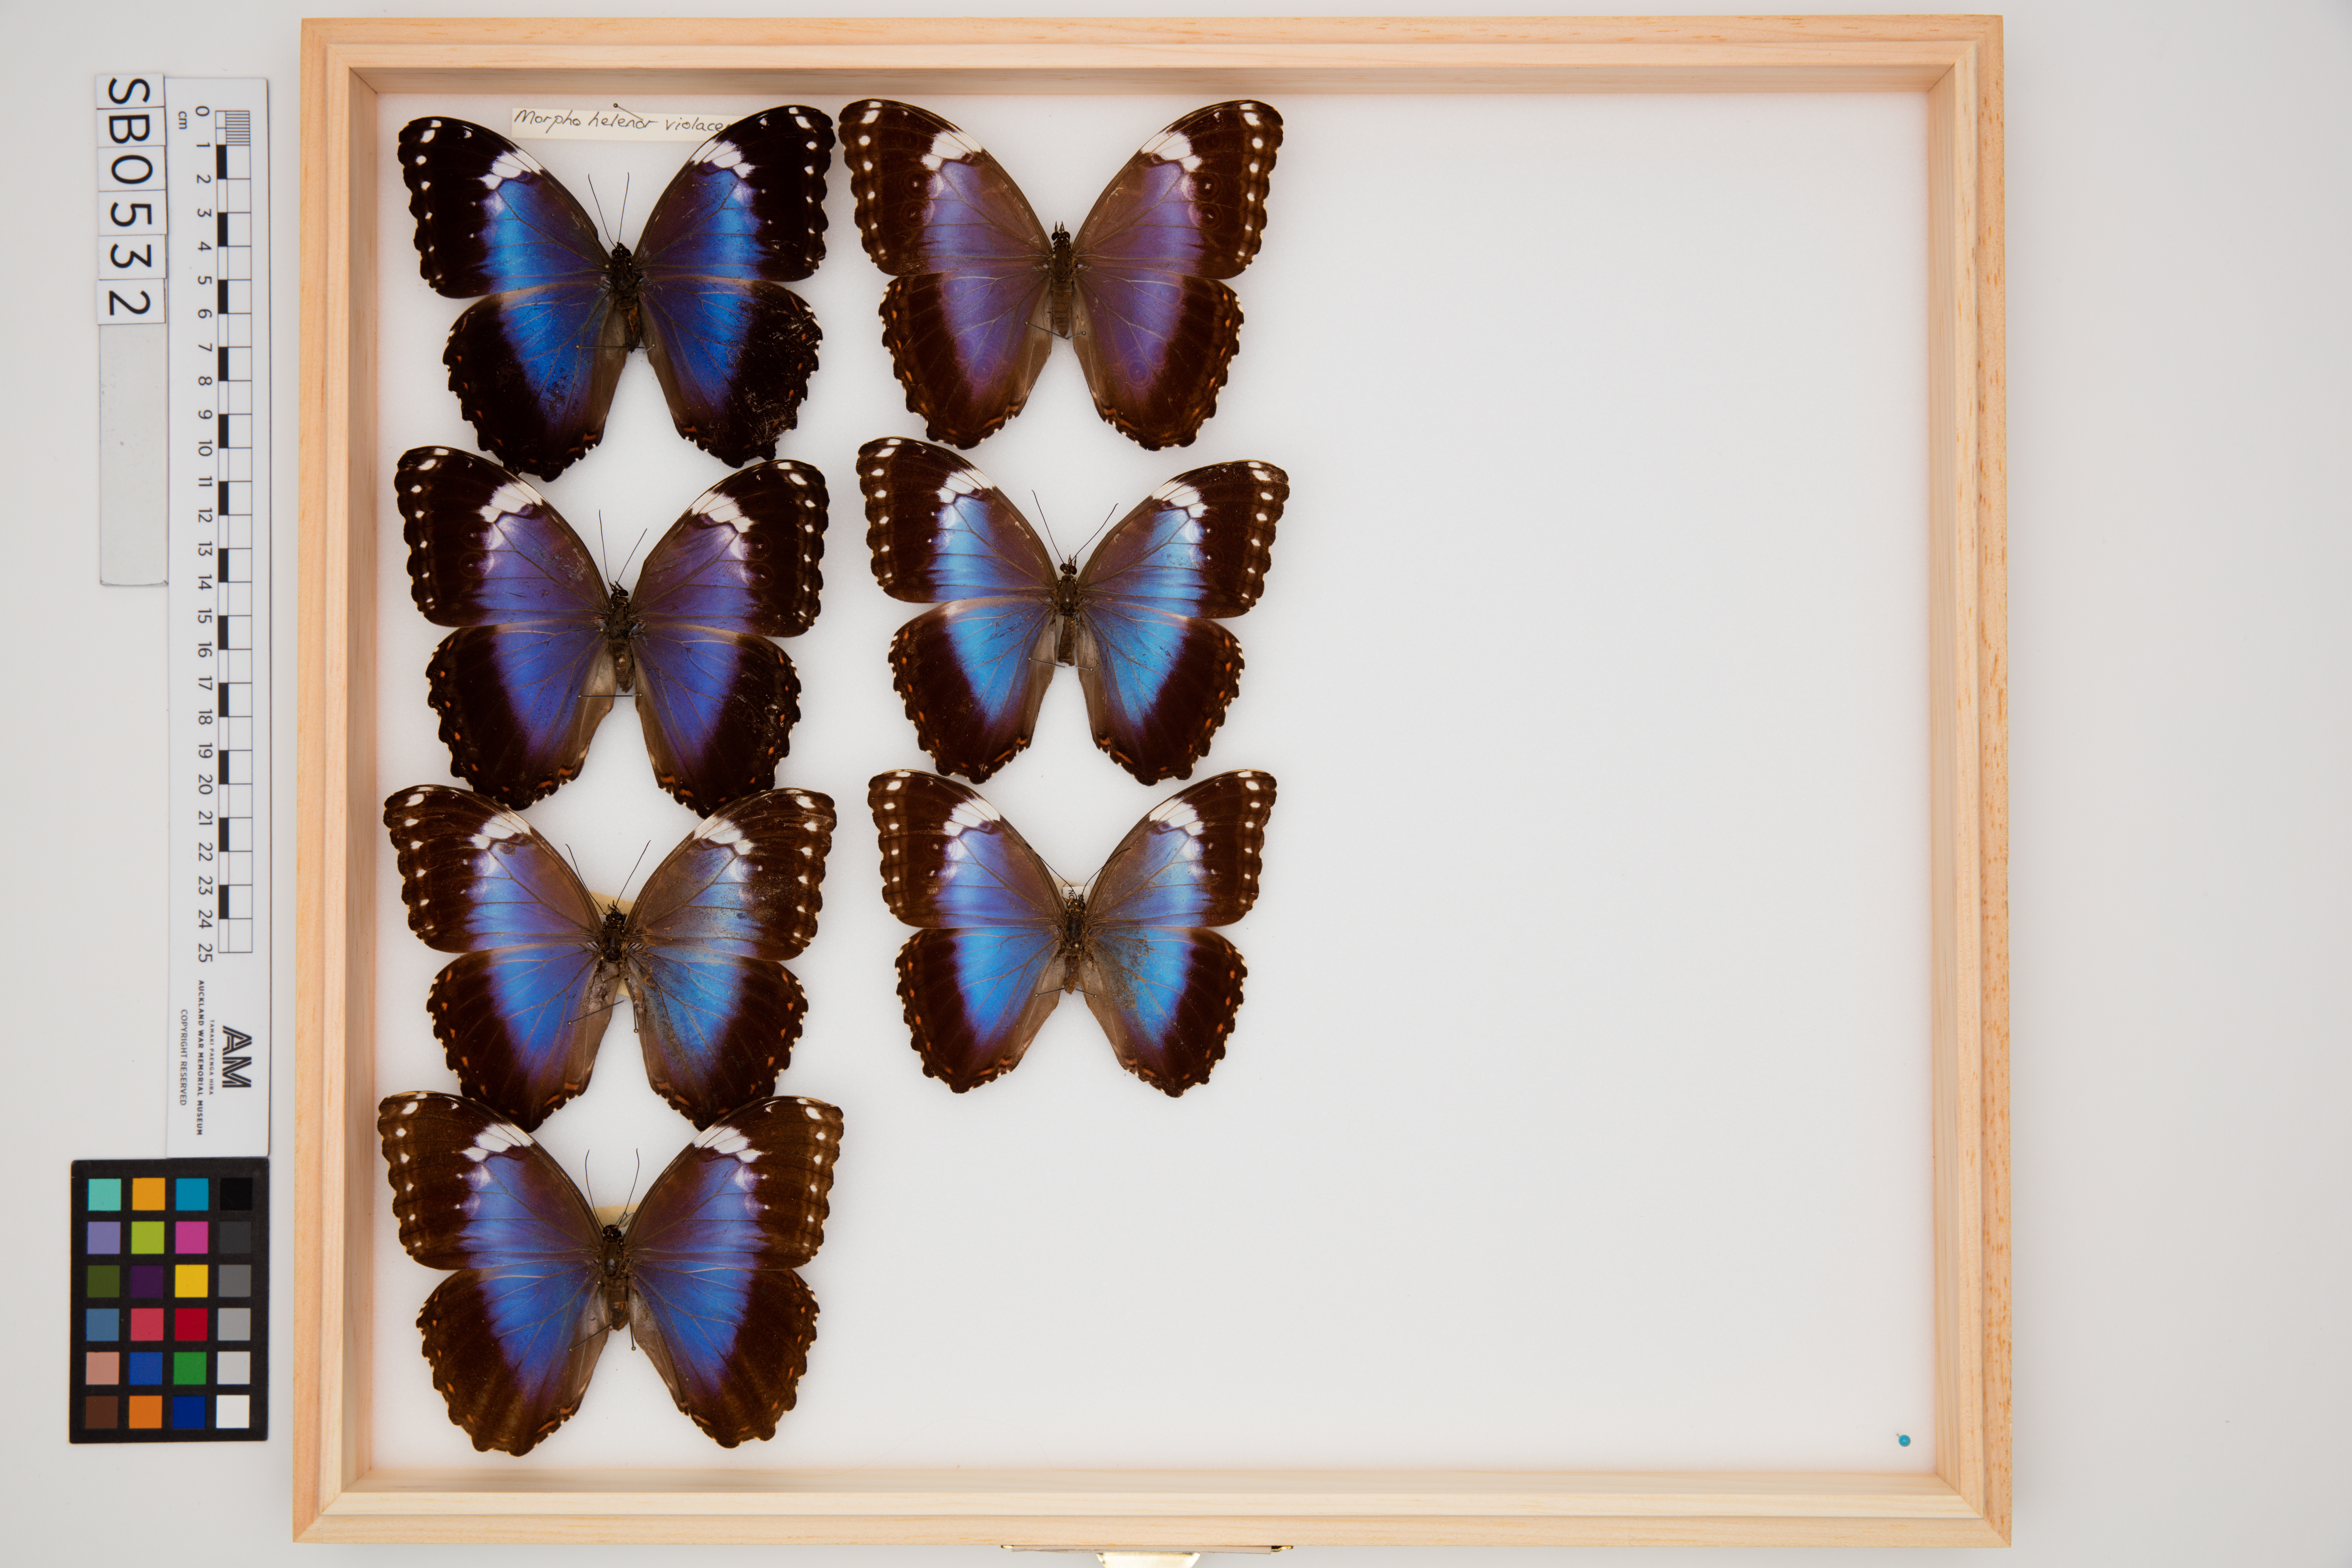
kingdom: Animalia
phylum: Arthropoda
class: Insecta
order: Lepidoptera
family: Nymphalidae
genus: Morpho
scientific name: Morpho helenor
